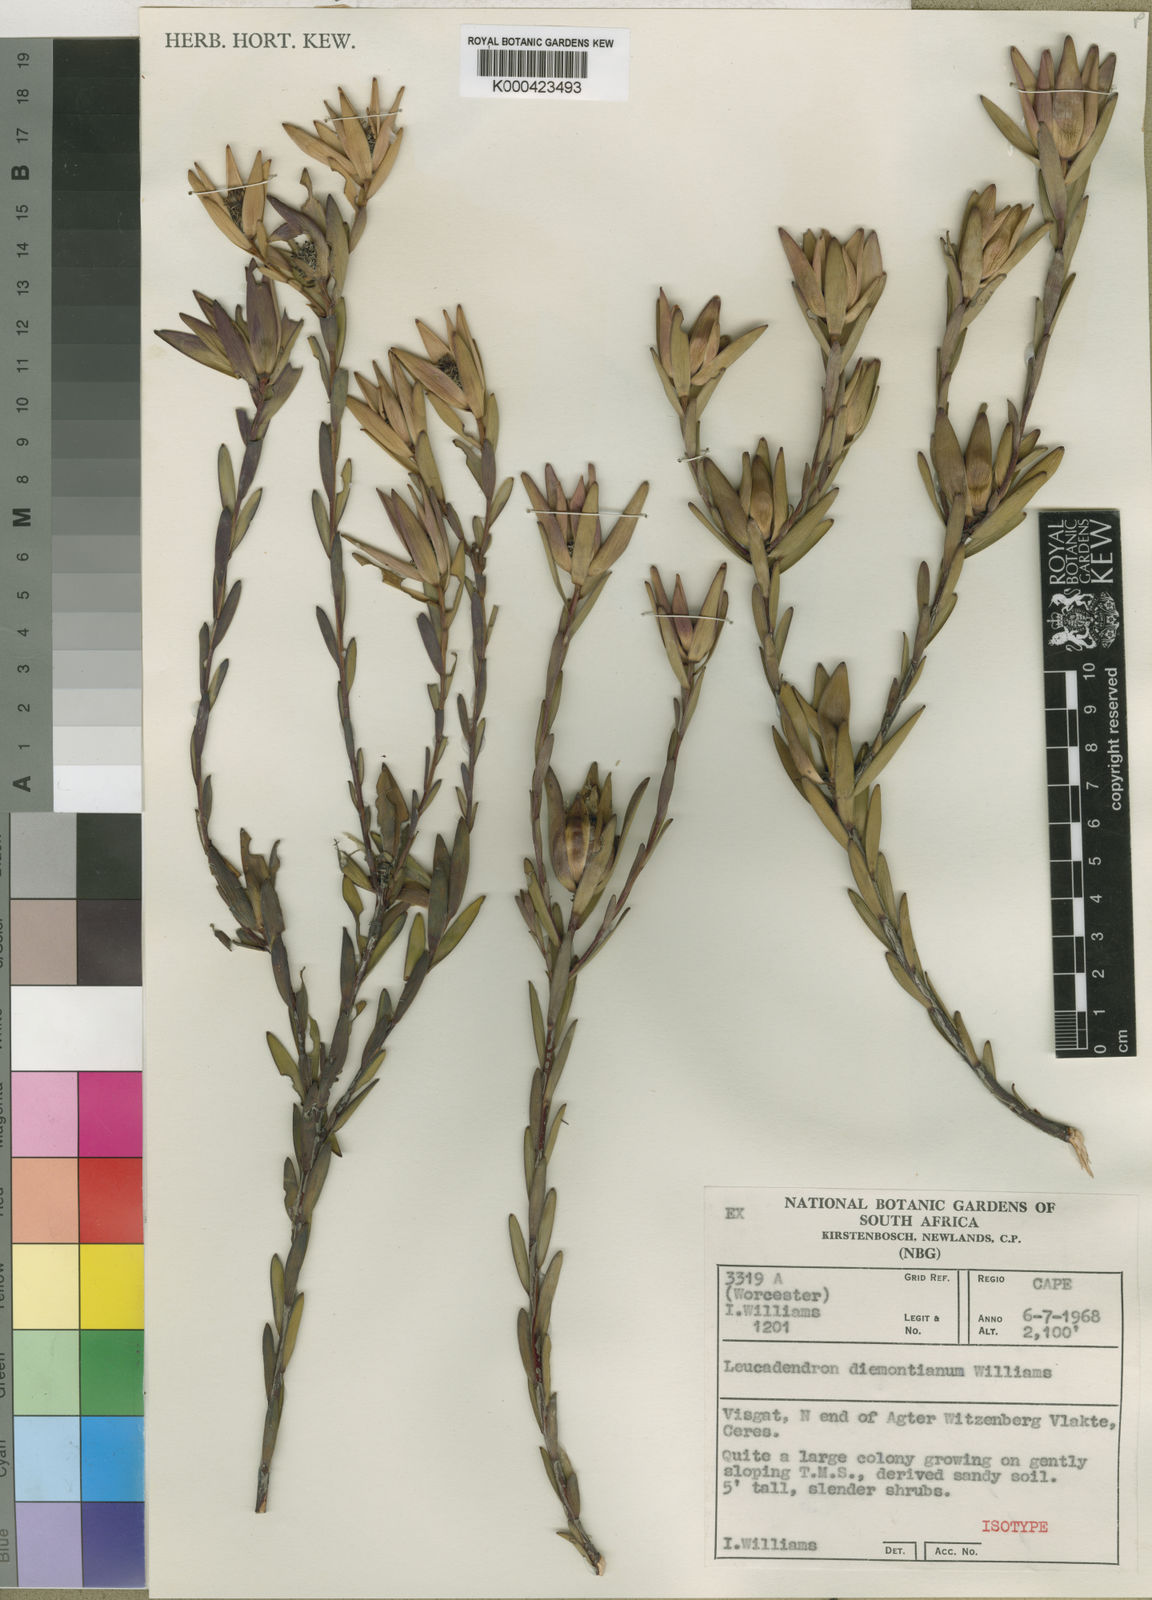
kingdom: Plantae
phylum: Tracheophyta
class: Magnoliopsida
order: Proteales
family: Proteaceae
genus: Leucadendron
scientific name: Leucadendron diemontianum
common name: Visgat conebush
